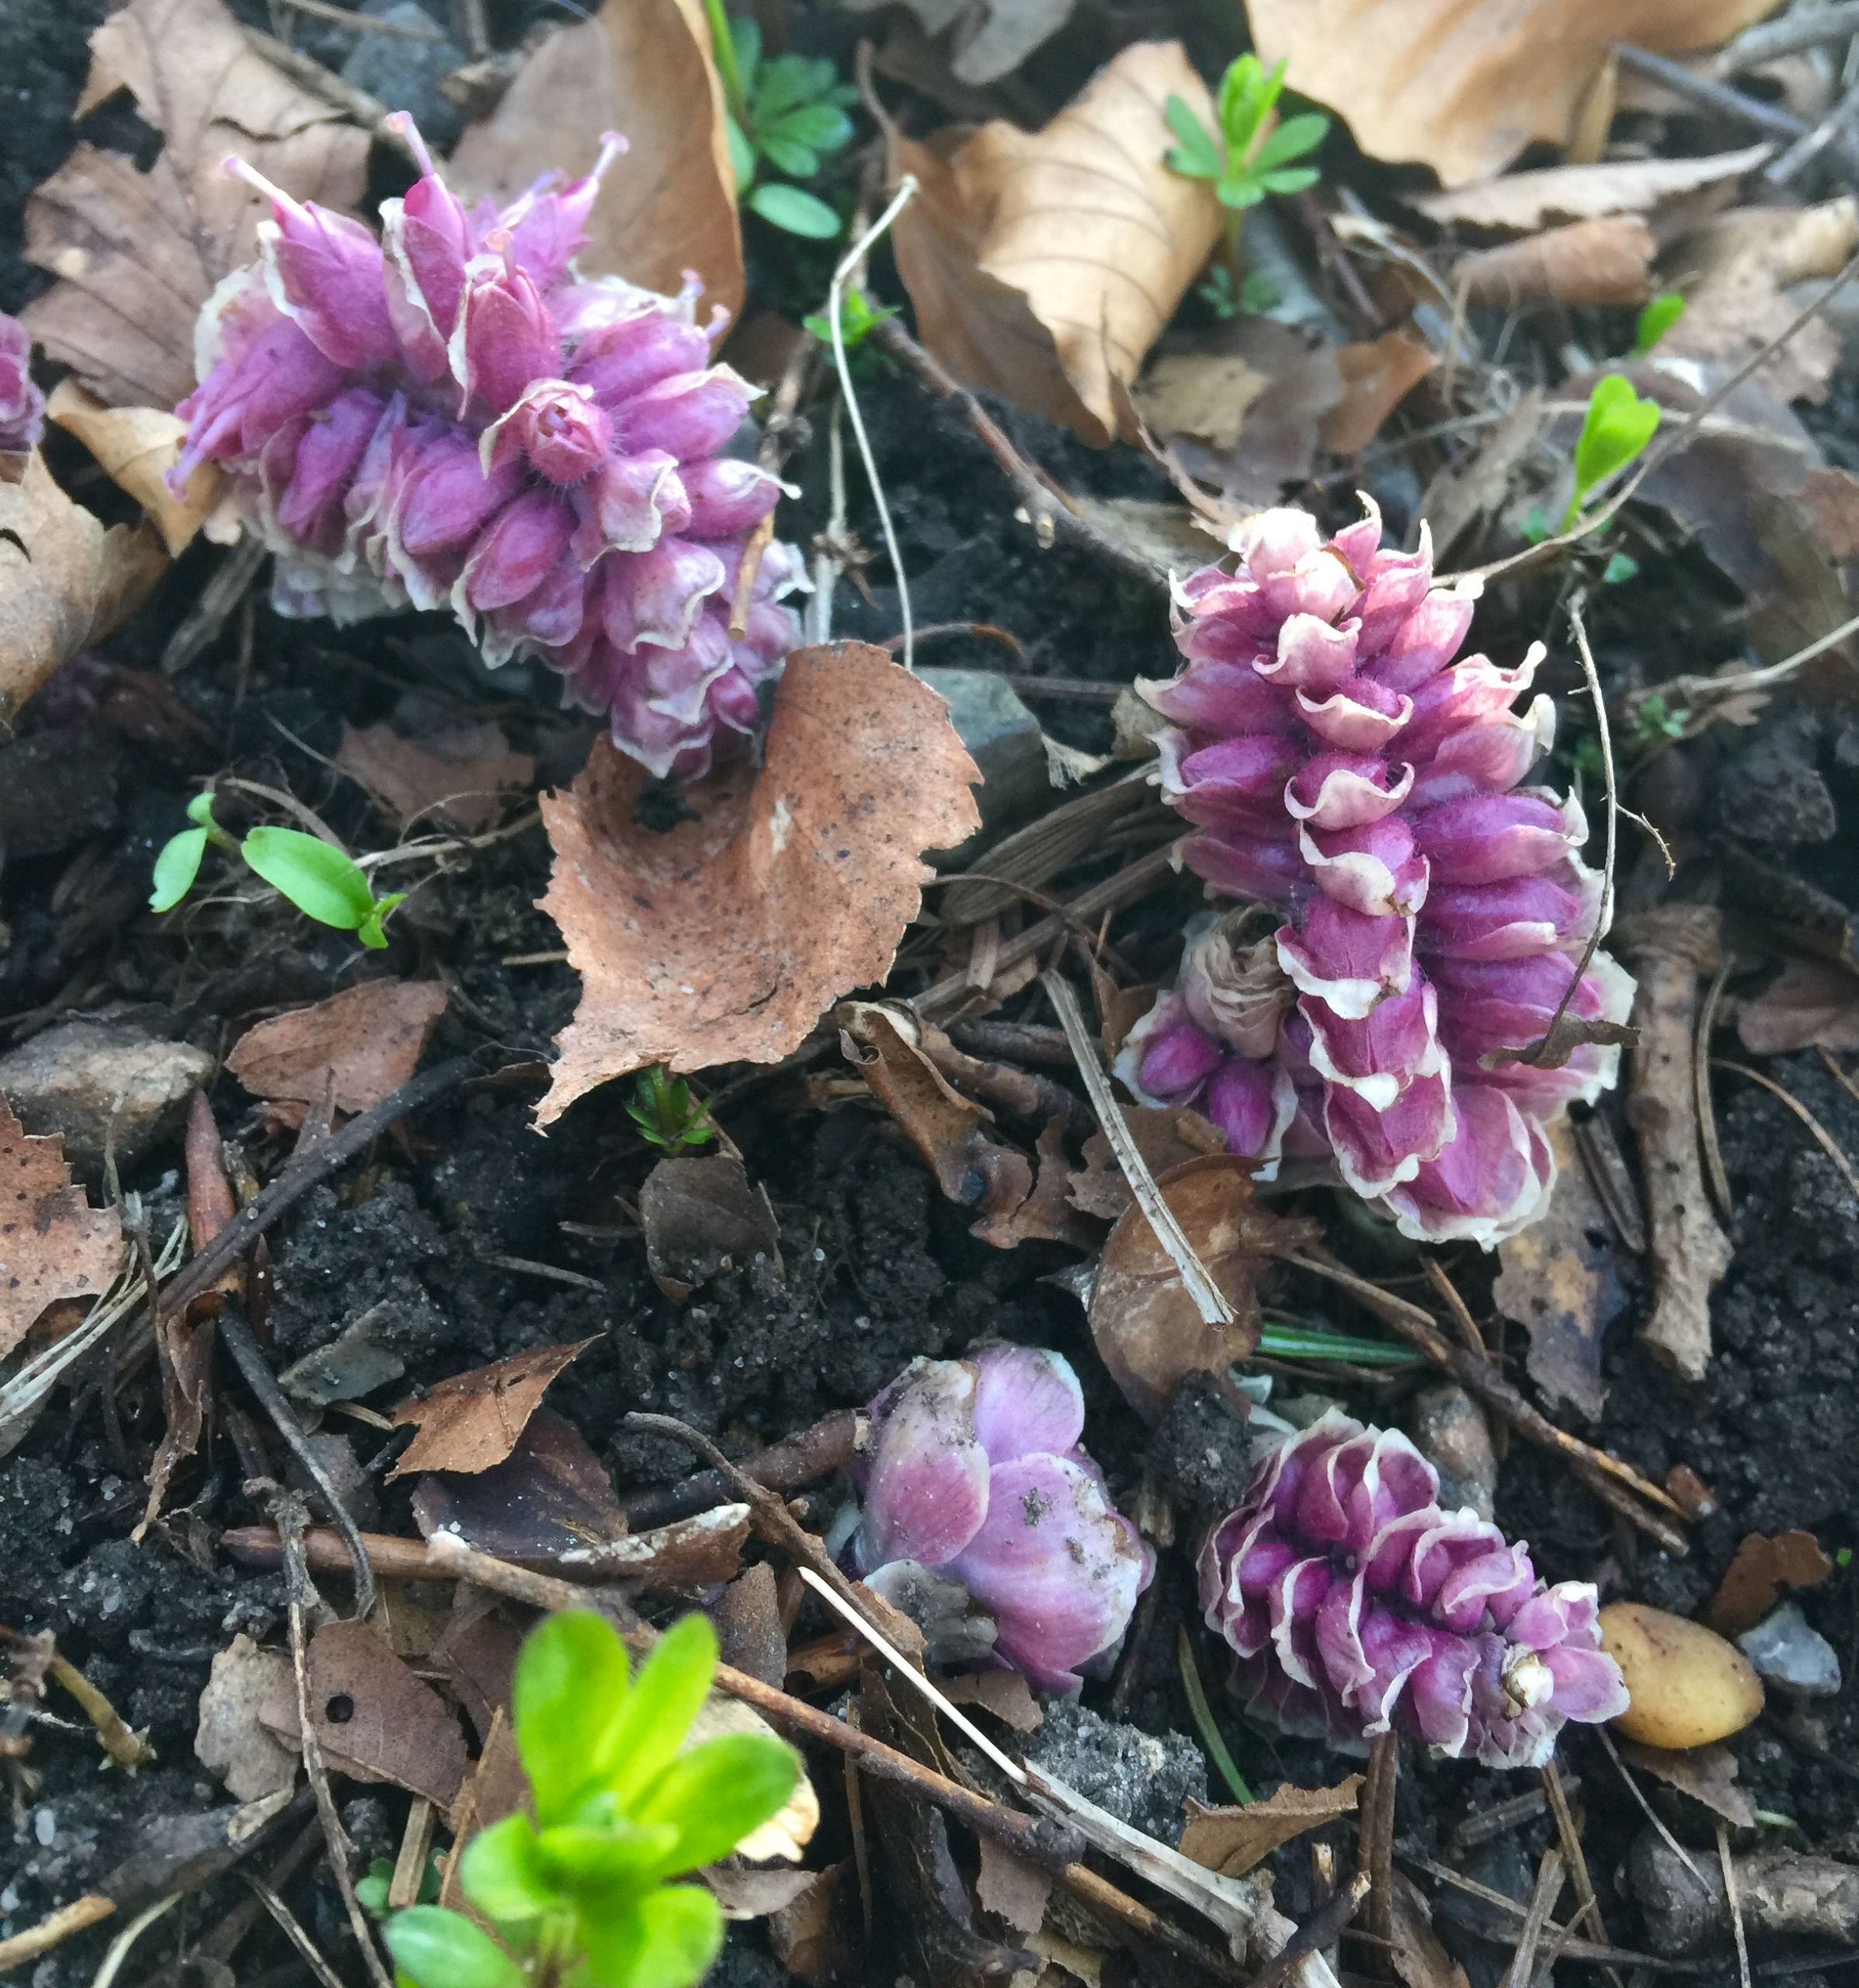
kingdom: Plantae
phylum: Tracheophyta
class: Magnoliopsida
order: Lamiales
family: Orobanchaceae
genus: Lathraea
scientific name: Lathraea squamaria
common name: Skælrod
